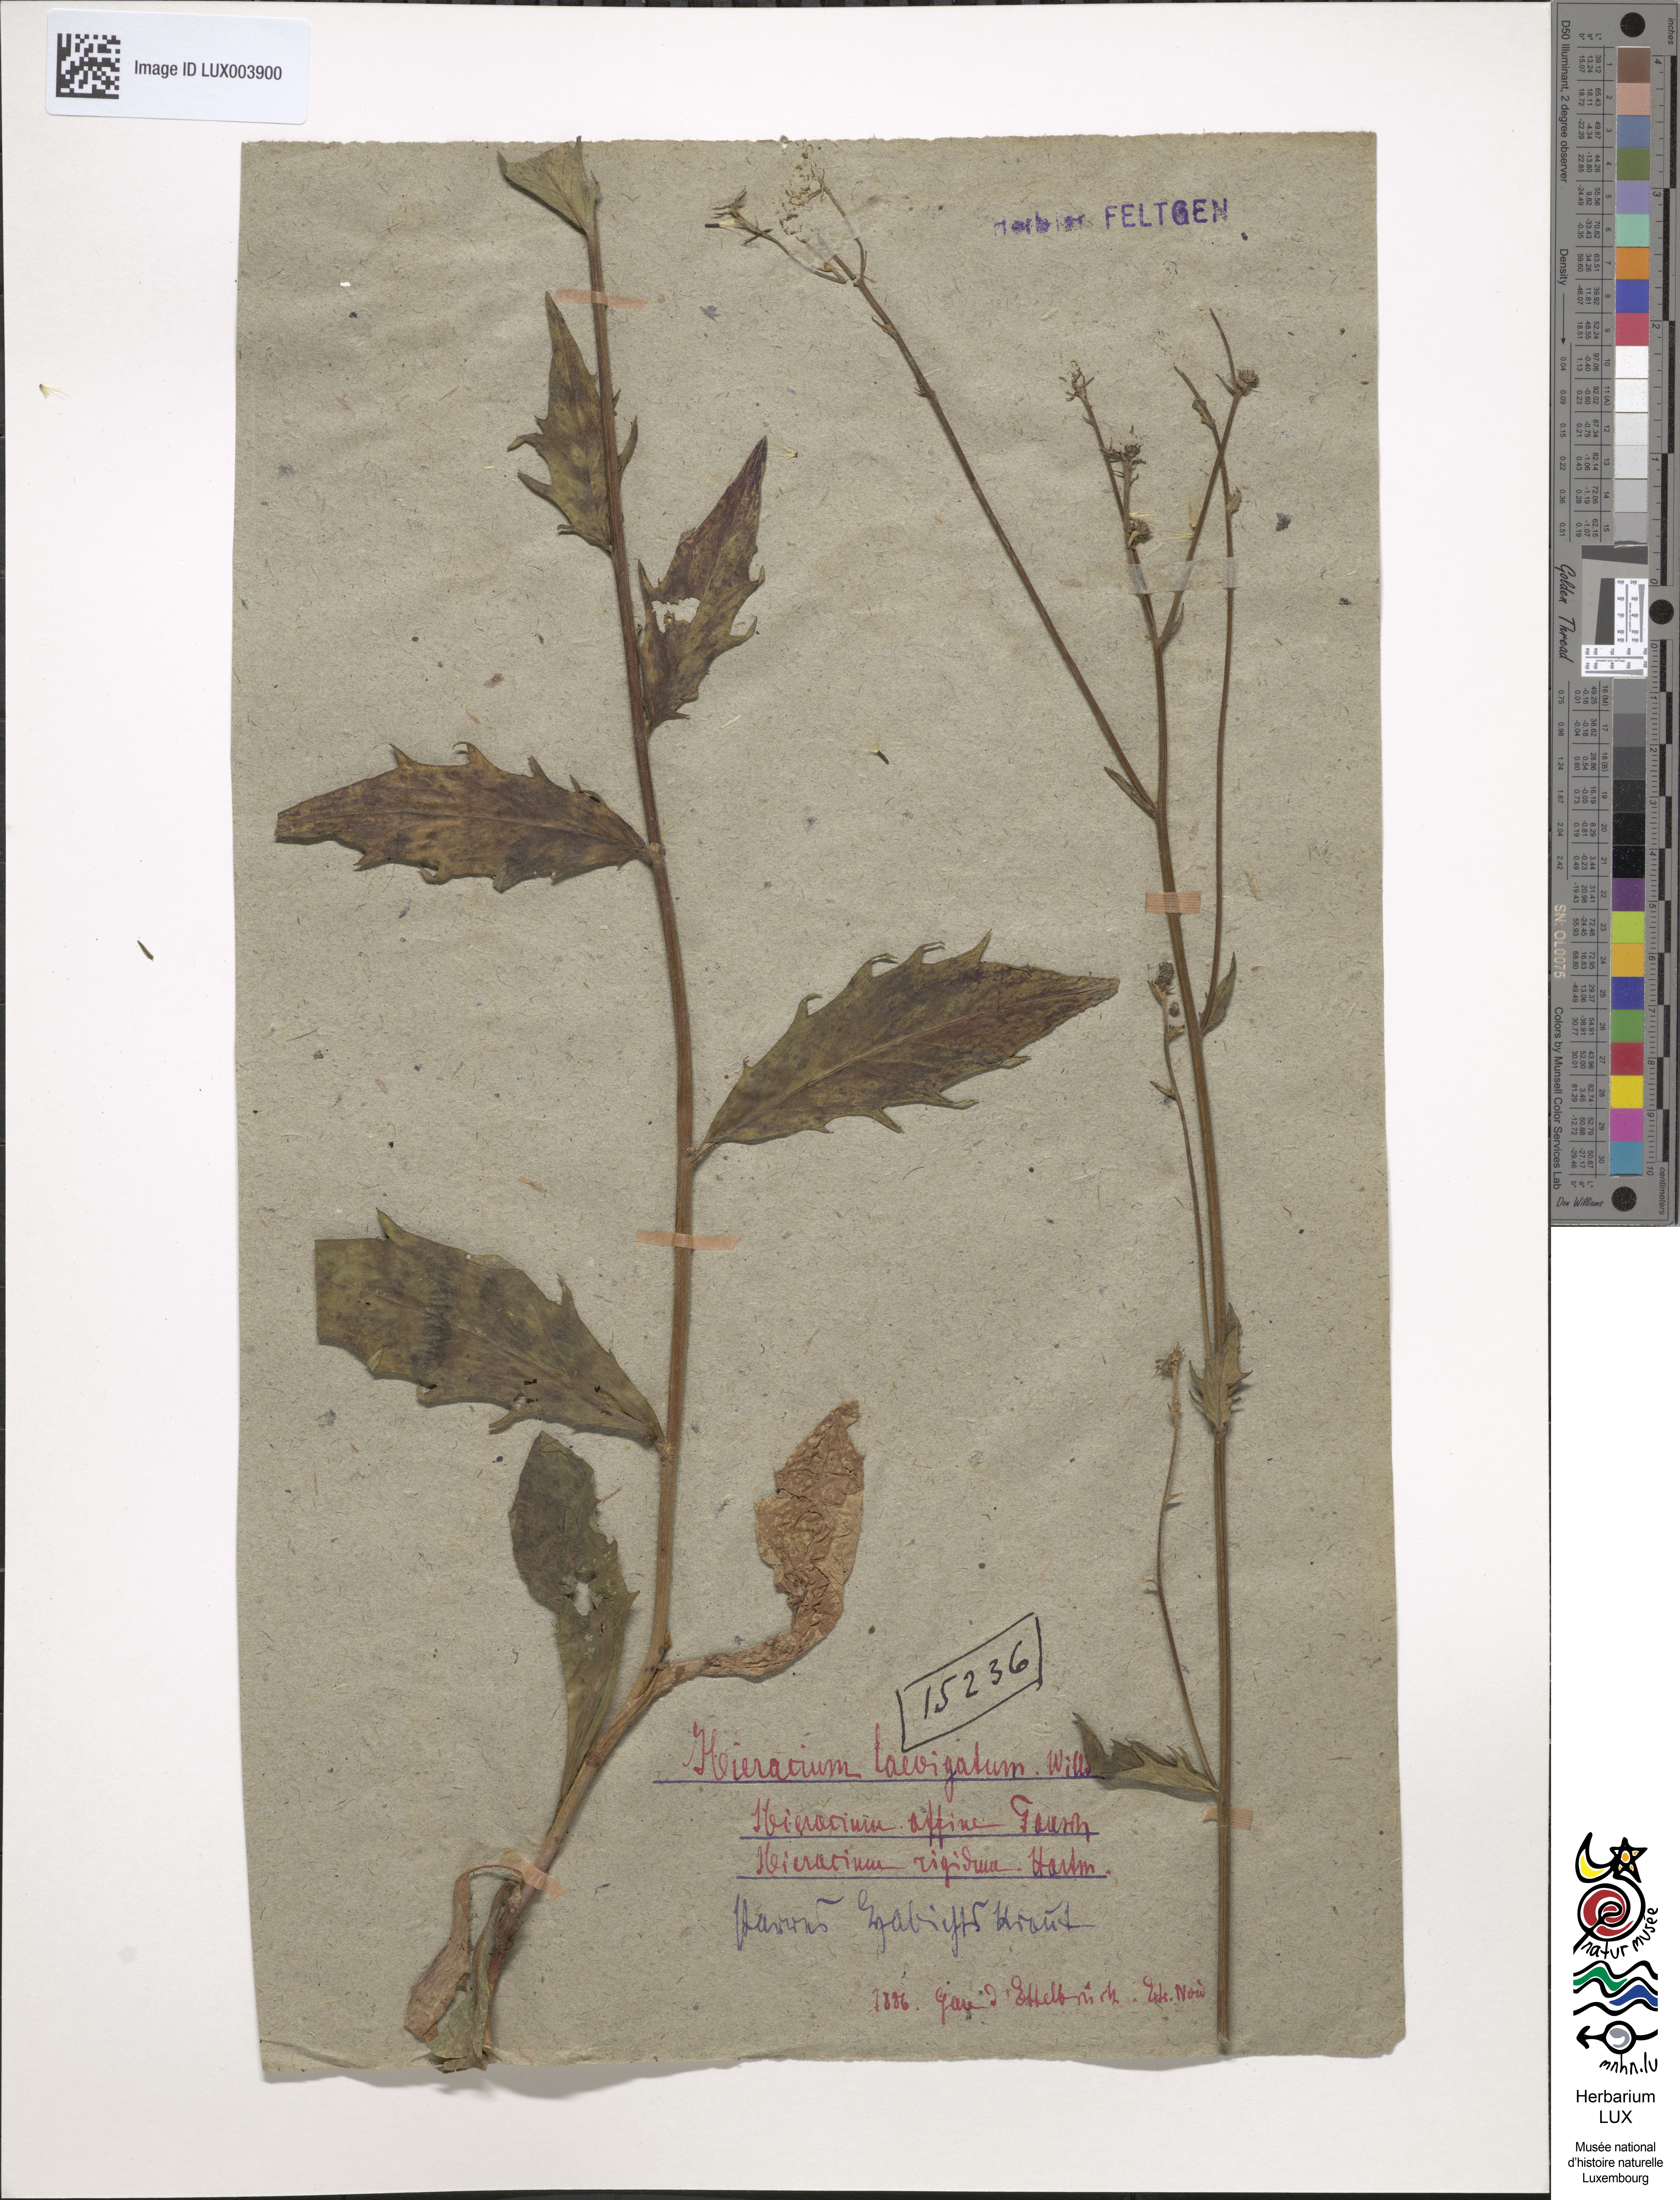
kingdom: Plantae
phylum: Tracheophyta
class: Magnoliopsida
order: Asterales
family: Asteraceae
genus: Hieracium
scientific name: Hieracium laevigatum
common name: Smooth hawkweed
